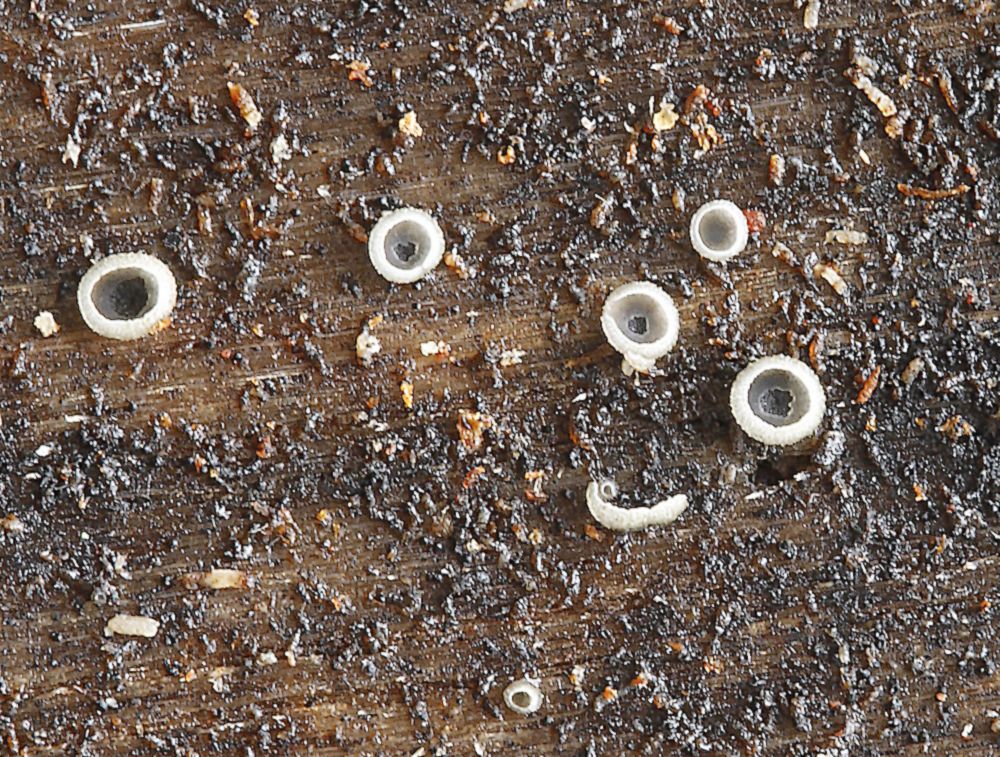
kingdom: Fungi
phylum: Ascomycota
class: Leotiomycetes
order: Helotiales
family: Mollisiaceae
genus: Mollisia
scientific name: Mollisia
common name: gråskive
